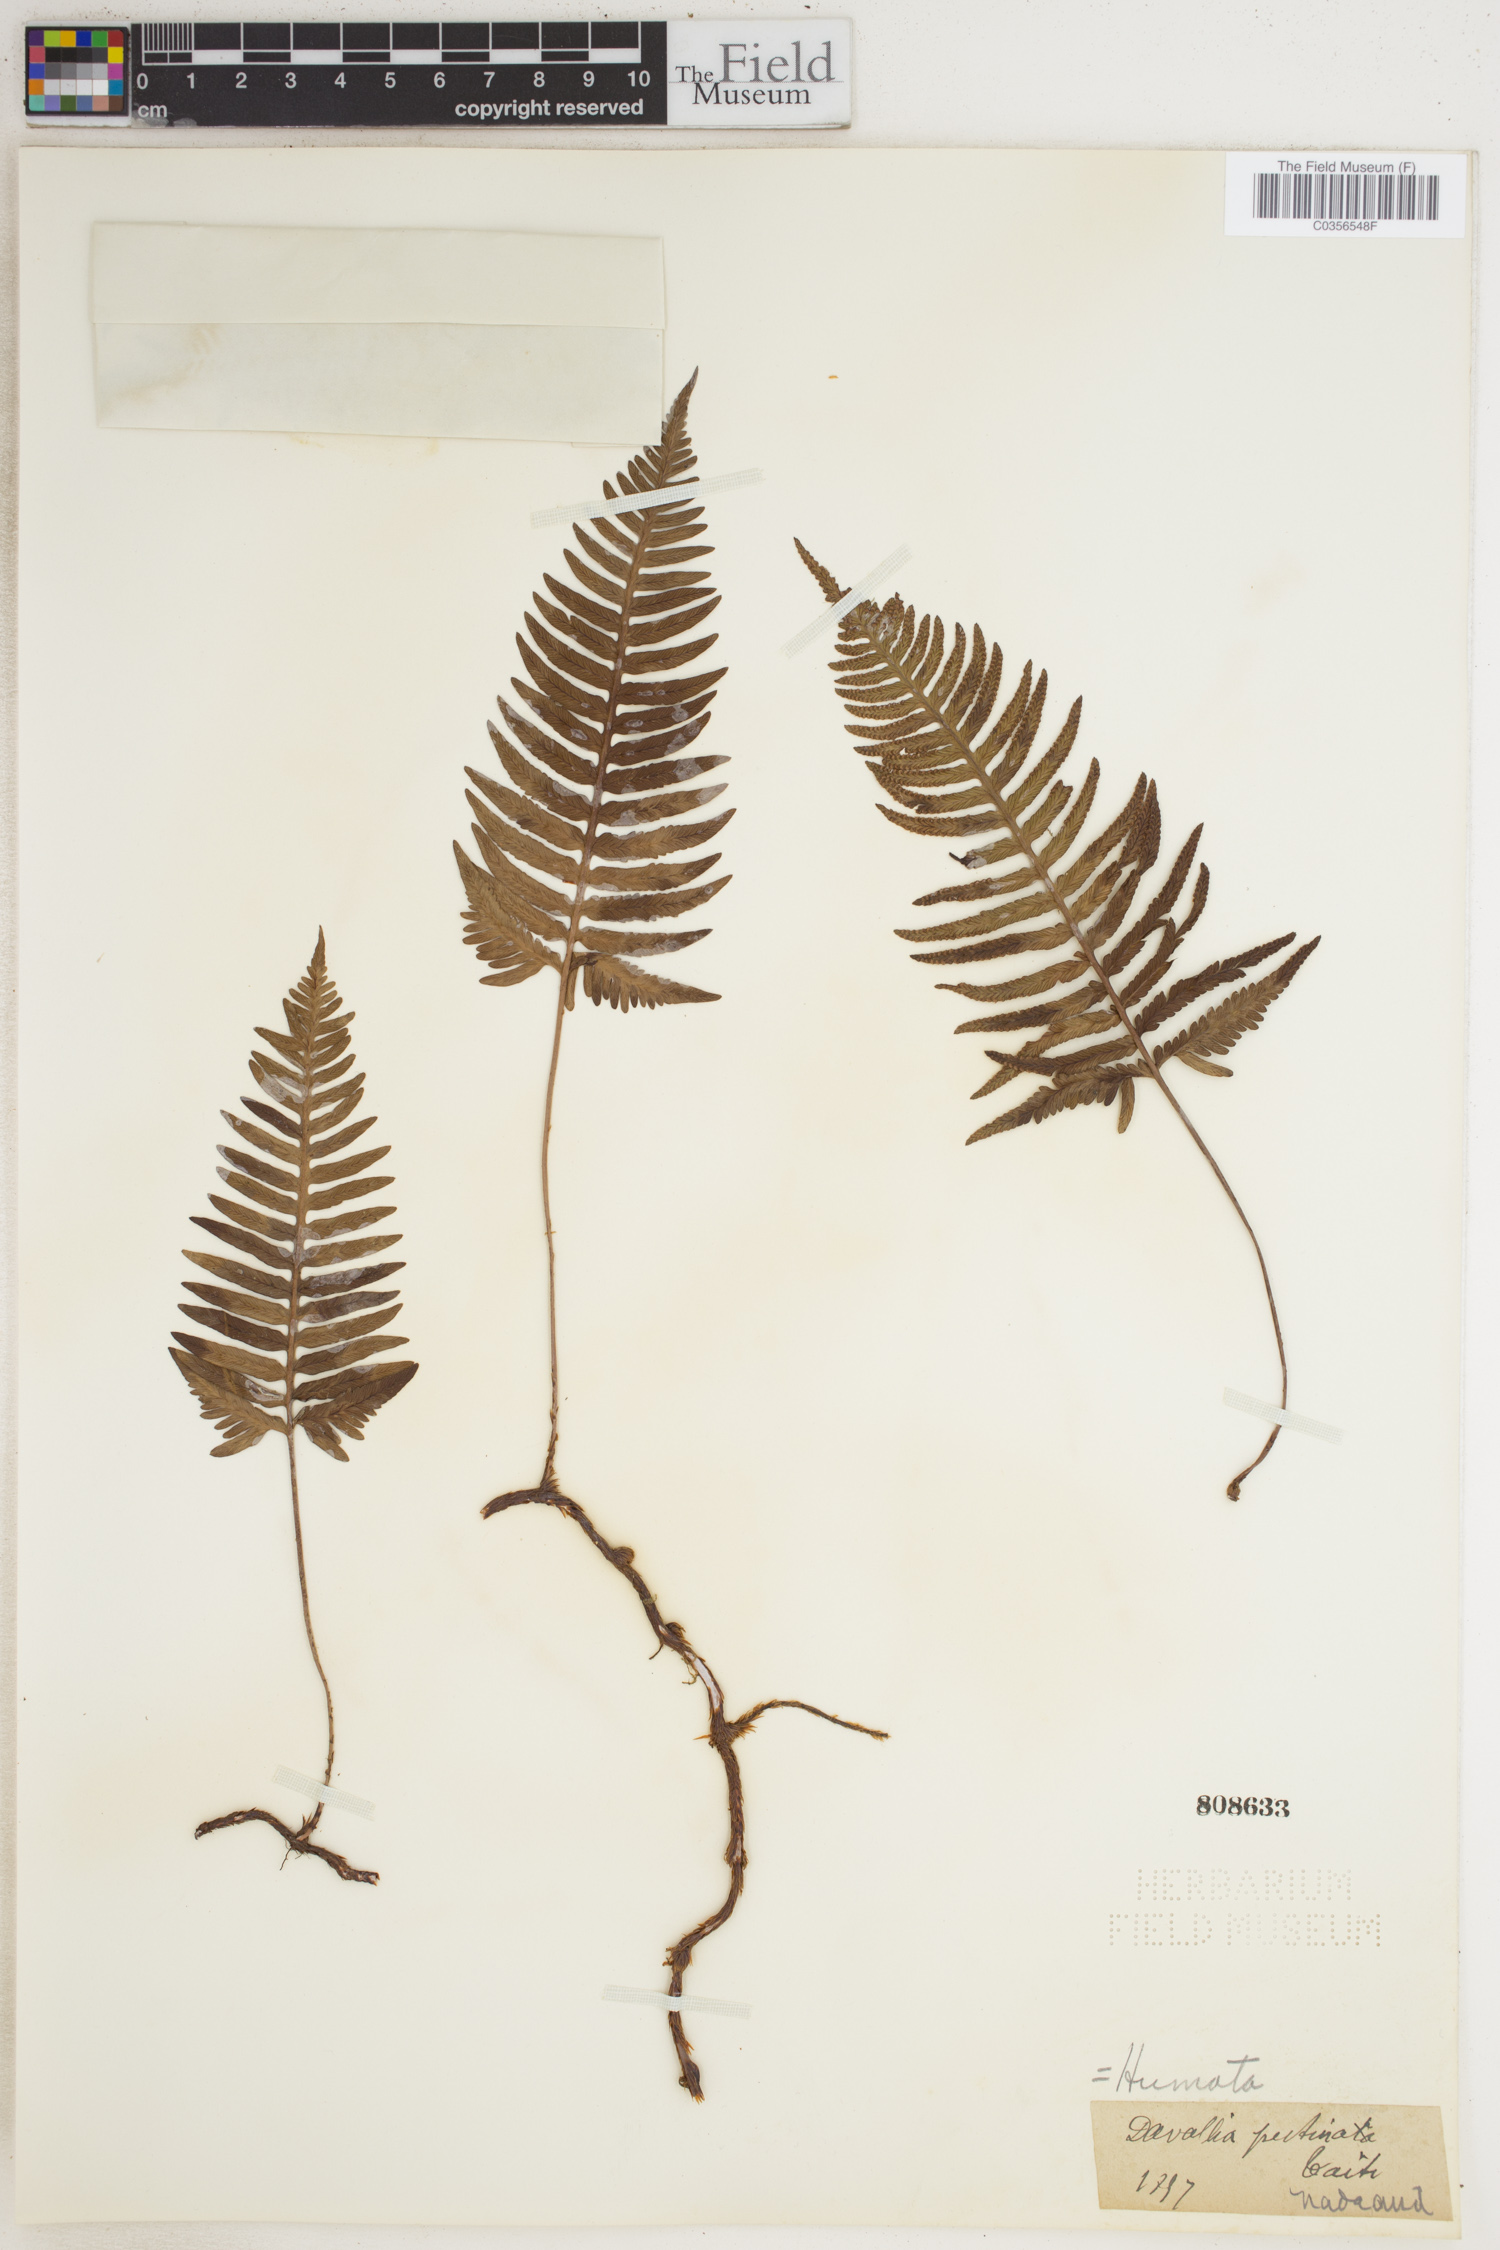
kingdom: Plantae
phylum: Tracheophyta
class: Polypodiopsida
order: Polypodiales
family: Davalliaceae
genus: Davallia
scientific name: Davallia pectinata
